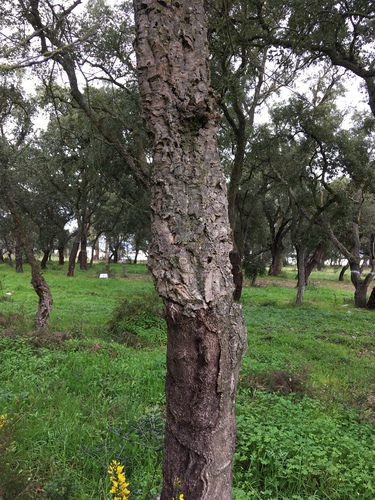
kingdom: Plantae
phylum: Tracheophyta
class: Magnoliopsida
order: Fagales
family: Fagaceae
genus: Quercus
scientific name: Quercus suber
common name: Cork oak
